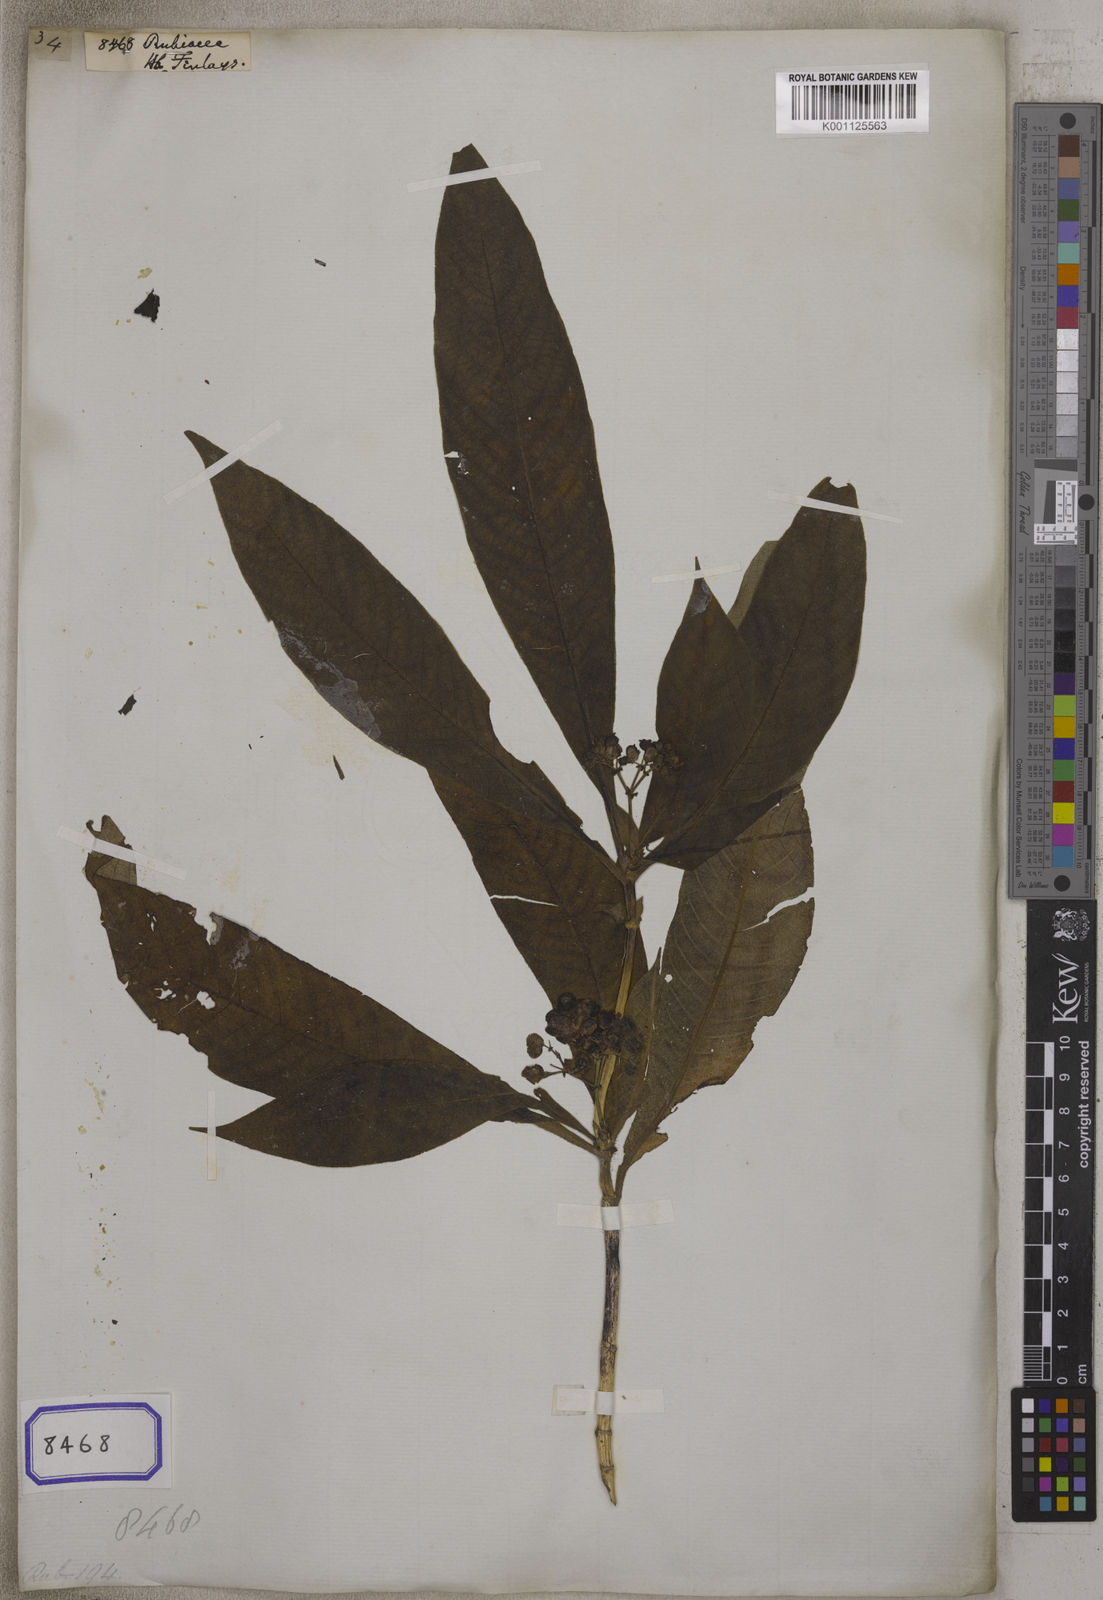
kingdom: Plantae
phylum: Tracheophyta
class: Magnoliopsida
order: Gentianales
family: Rubiaceae
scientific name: Rubiaceae
